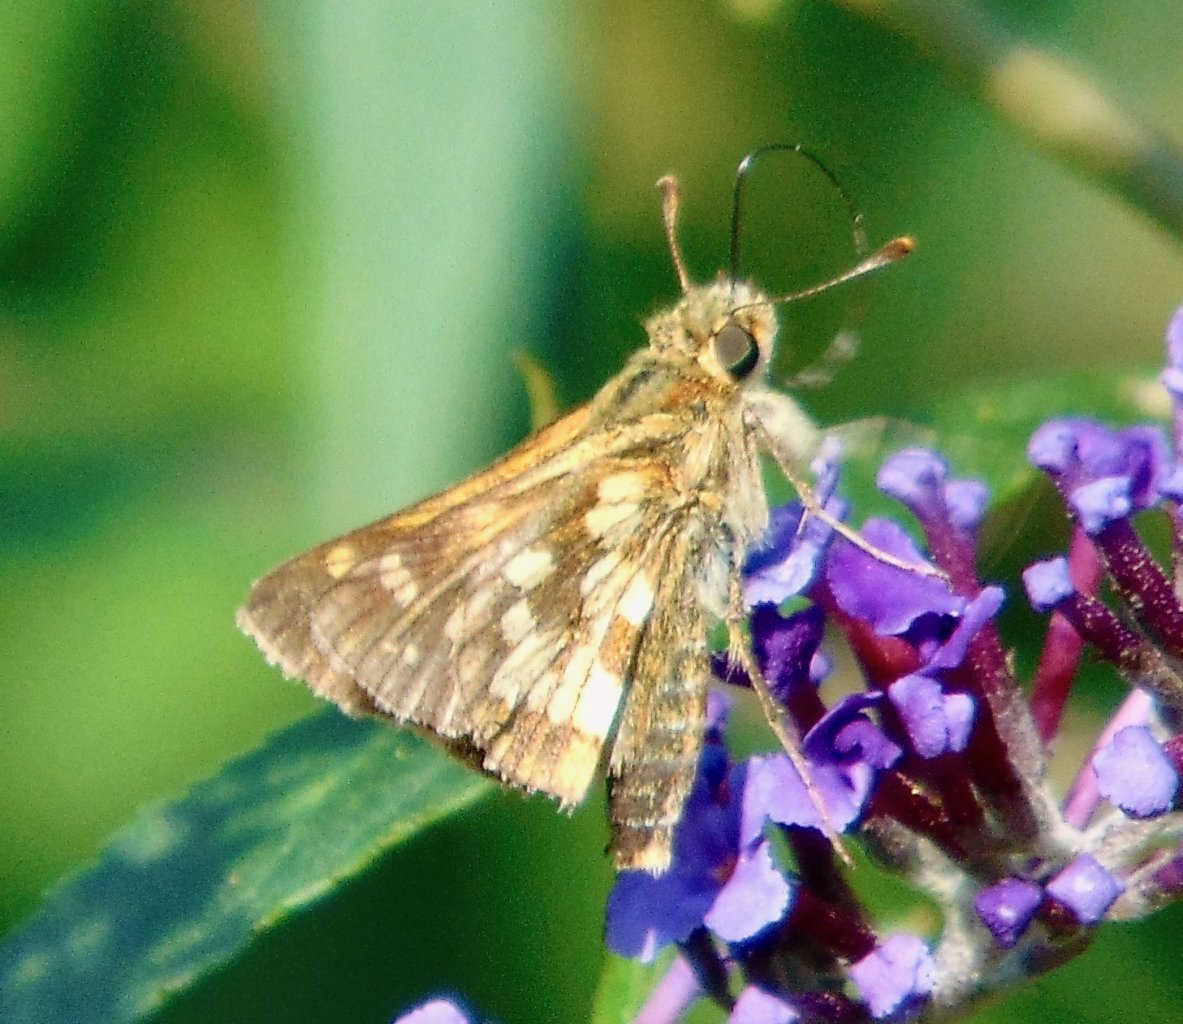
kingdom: Animalia
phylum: Arthropoda
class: Insecta
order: Lepidoptera
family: Hesperiidae
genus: Polites
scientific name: Polites coras
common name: Peck's Skipper
